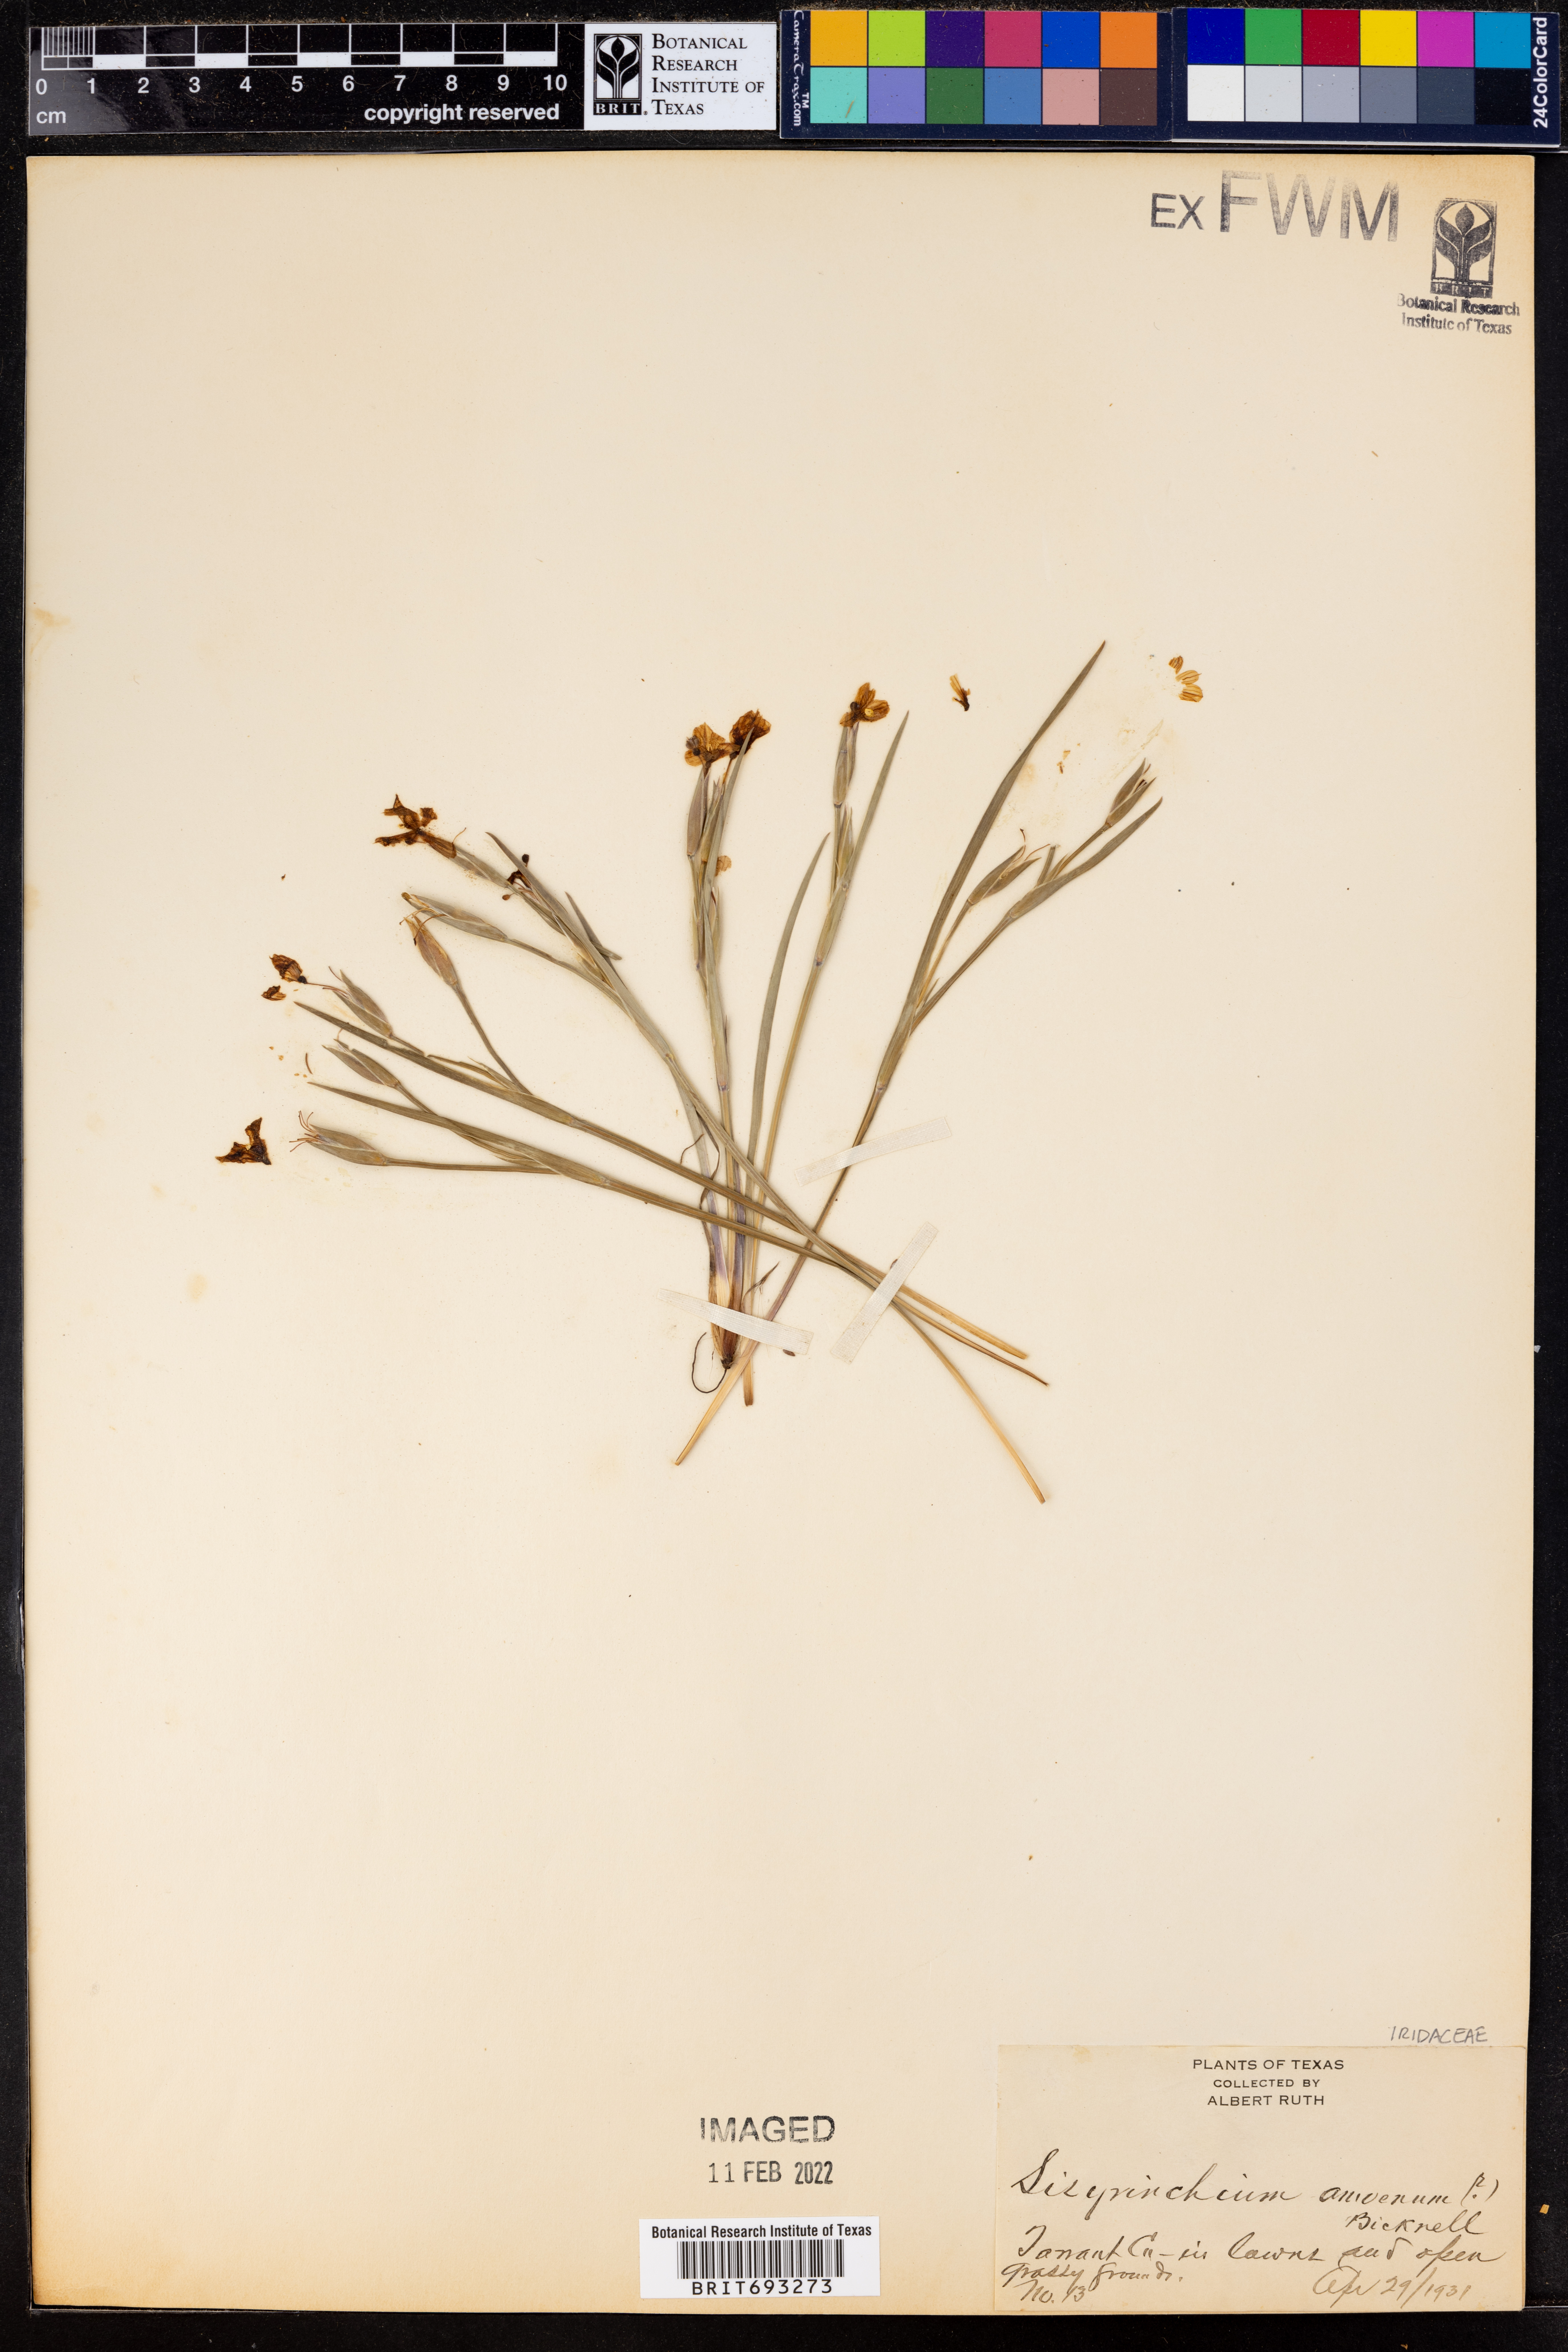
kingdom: Plantae
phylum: Tracheophyta
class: Liliopsida
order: Asparagales
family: Iridaceae
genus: Sisyrinchium
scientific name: Sisyrinchium ensigerum
